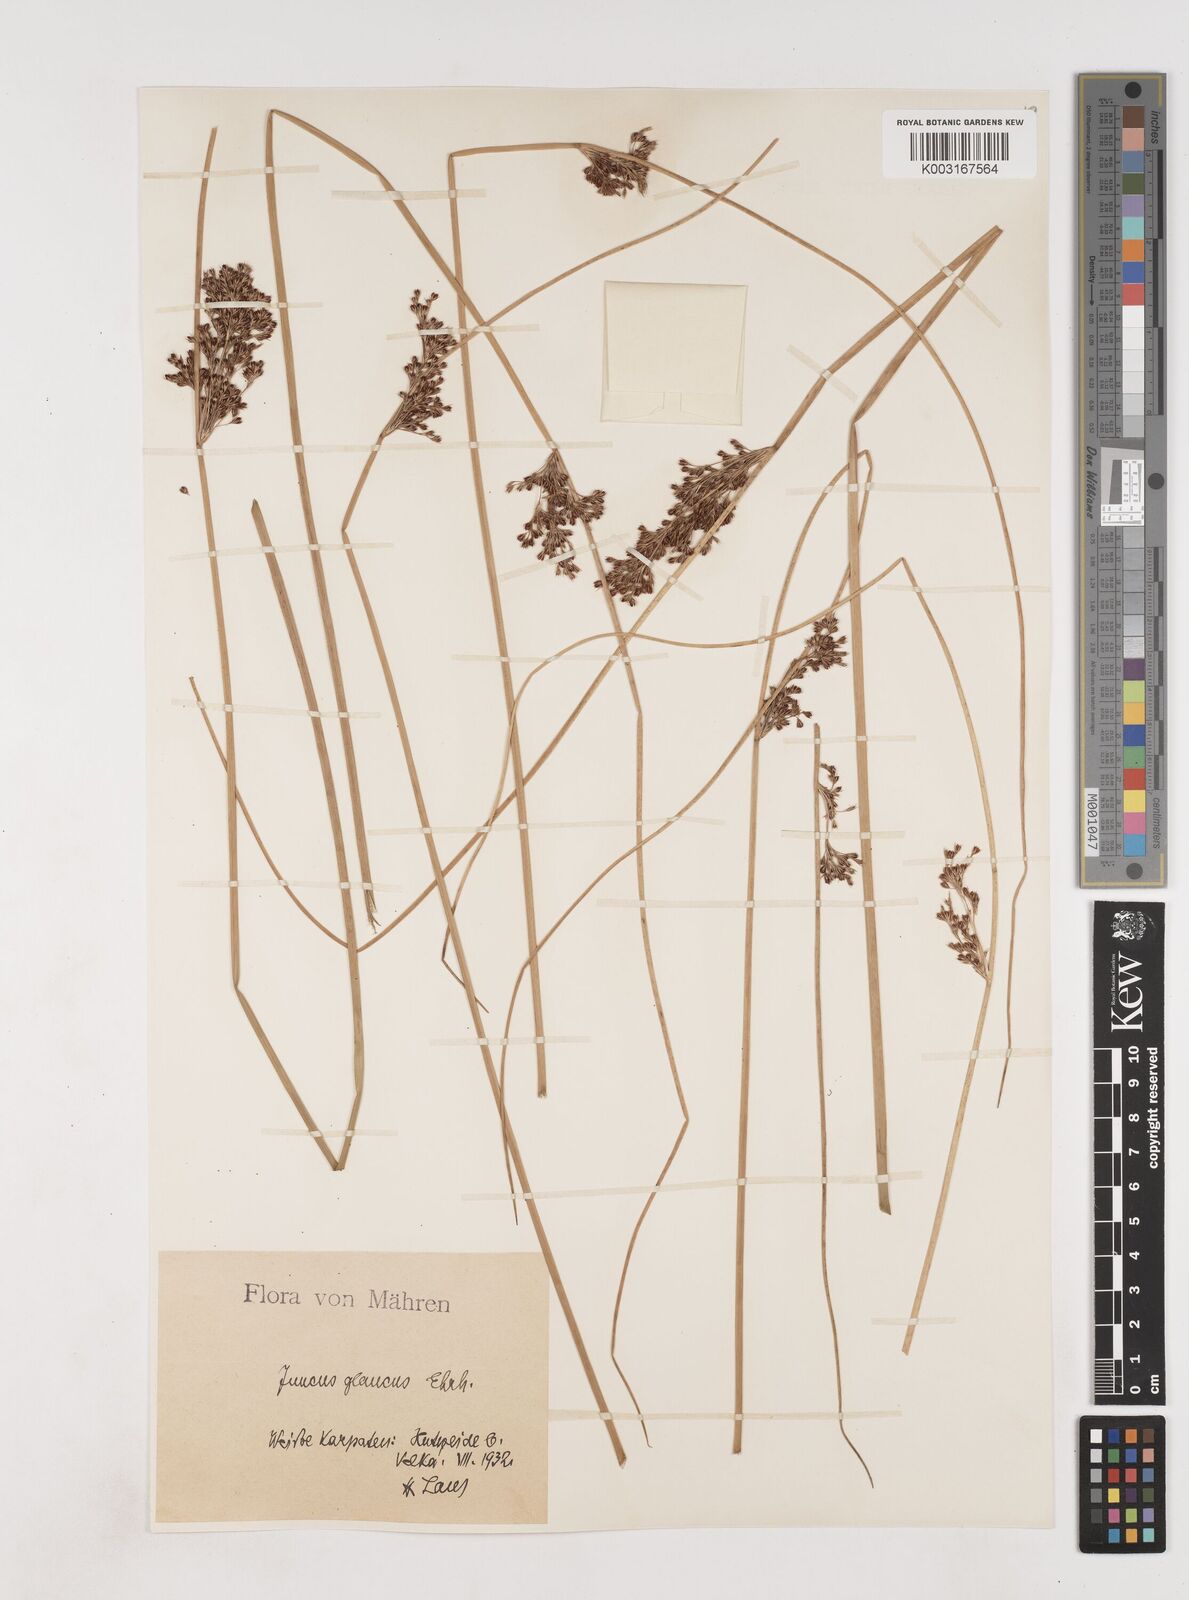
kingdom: Plantae
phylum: Tracheophyta
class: Liliopsida
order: Poales
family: Juncaceae
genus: Juncus
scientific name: Juncus inflexus
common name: Hard rush
